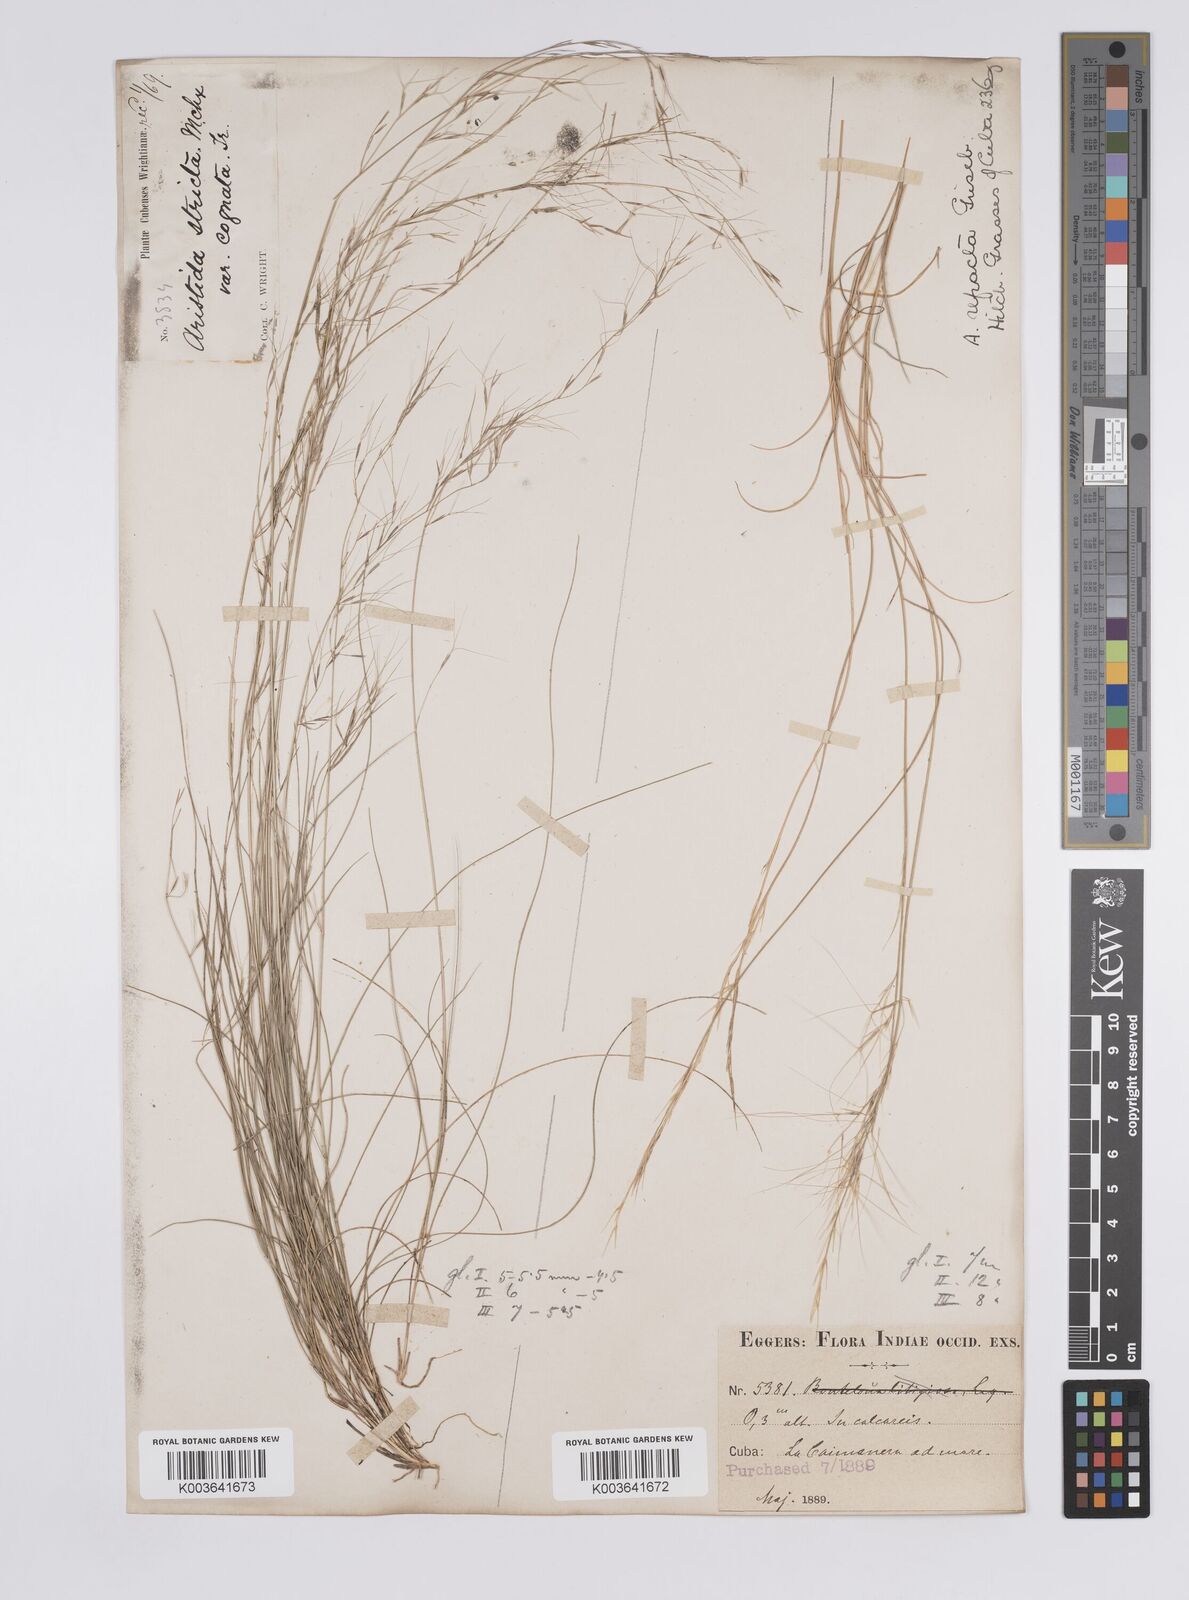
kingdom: Plantae
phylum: Tracheophyta
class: Liliopsida
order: Poales
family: Poaceae
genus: Aristida
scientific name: Aristida refracta
